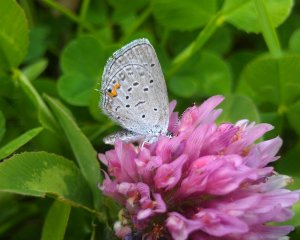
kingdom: Animalia
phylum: Arthropoda
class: Insecta
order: Lepidoptera
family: Lycaenidae
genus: Elkalyce
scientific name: Elkalyce comyntas
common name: Eastern Tailed-Blue
